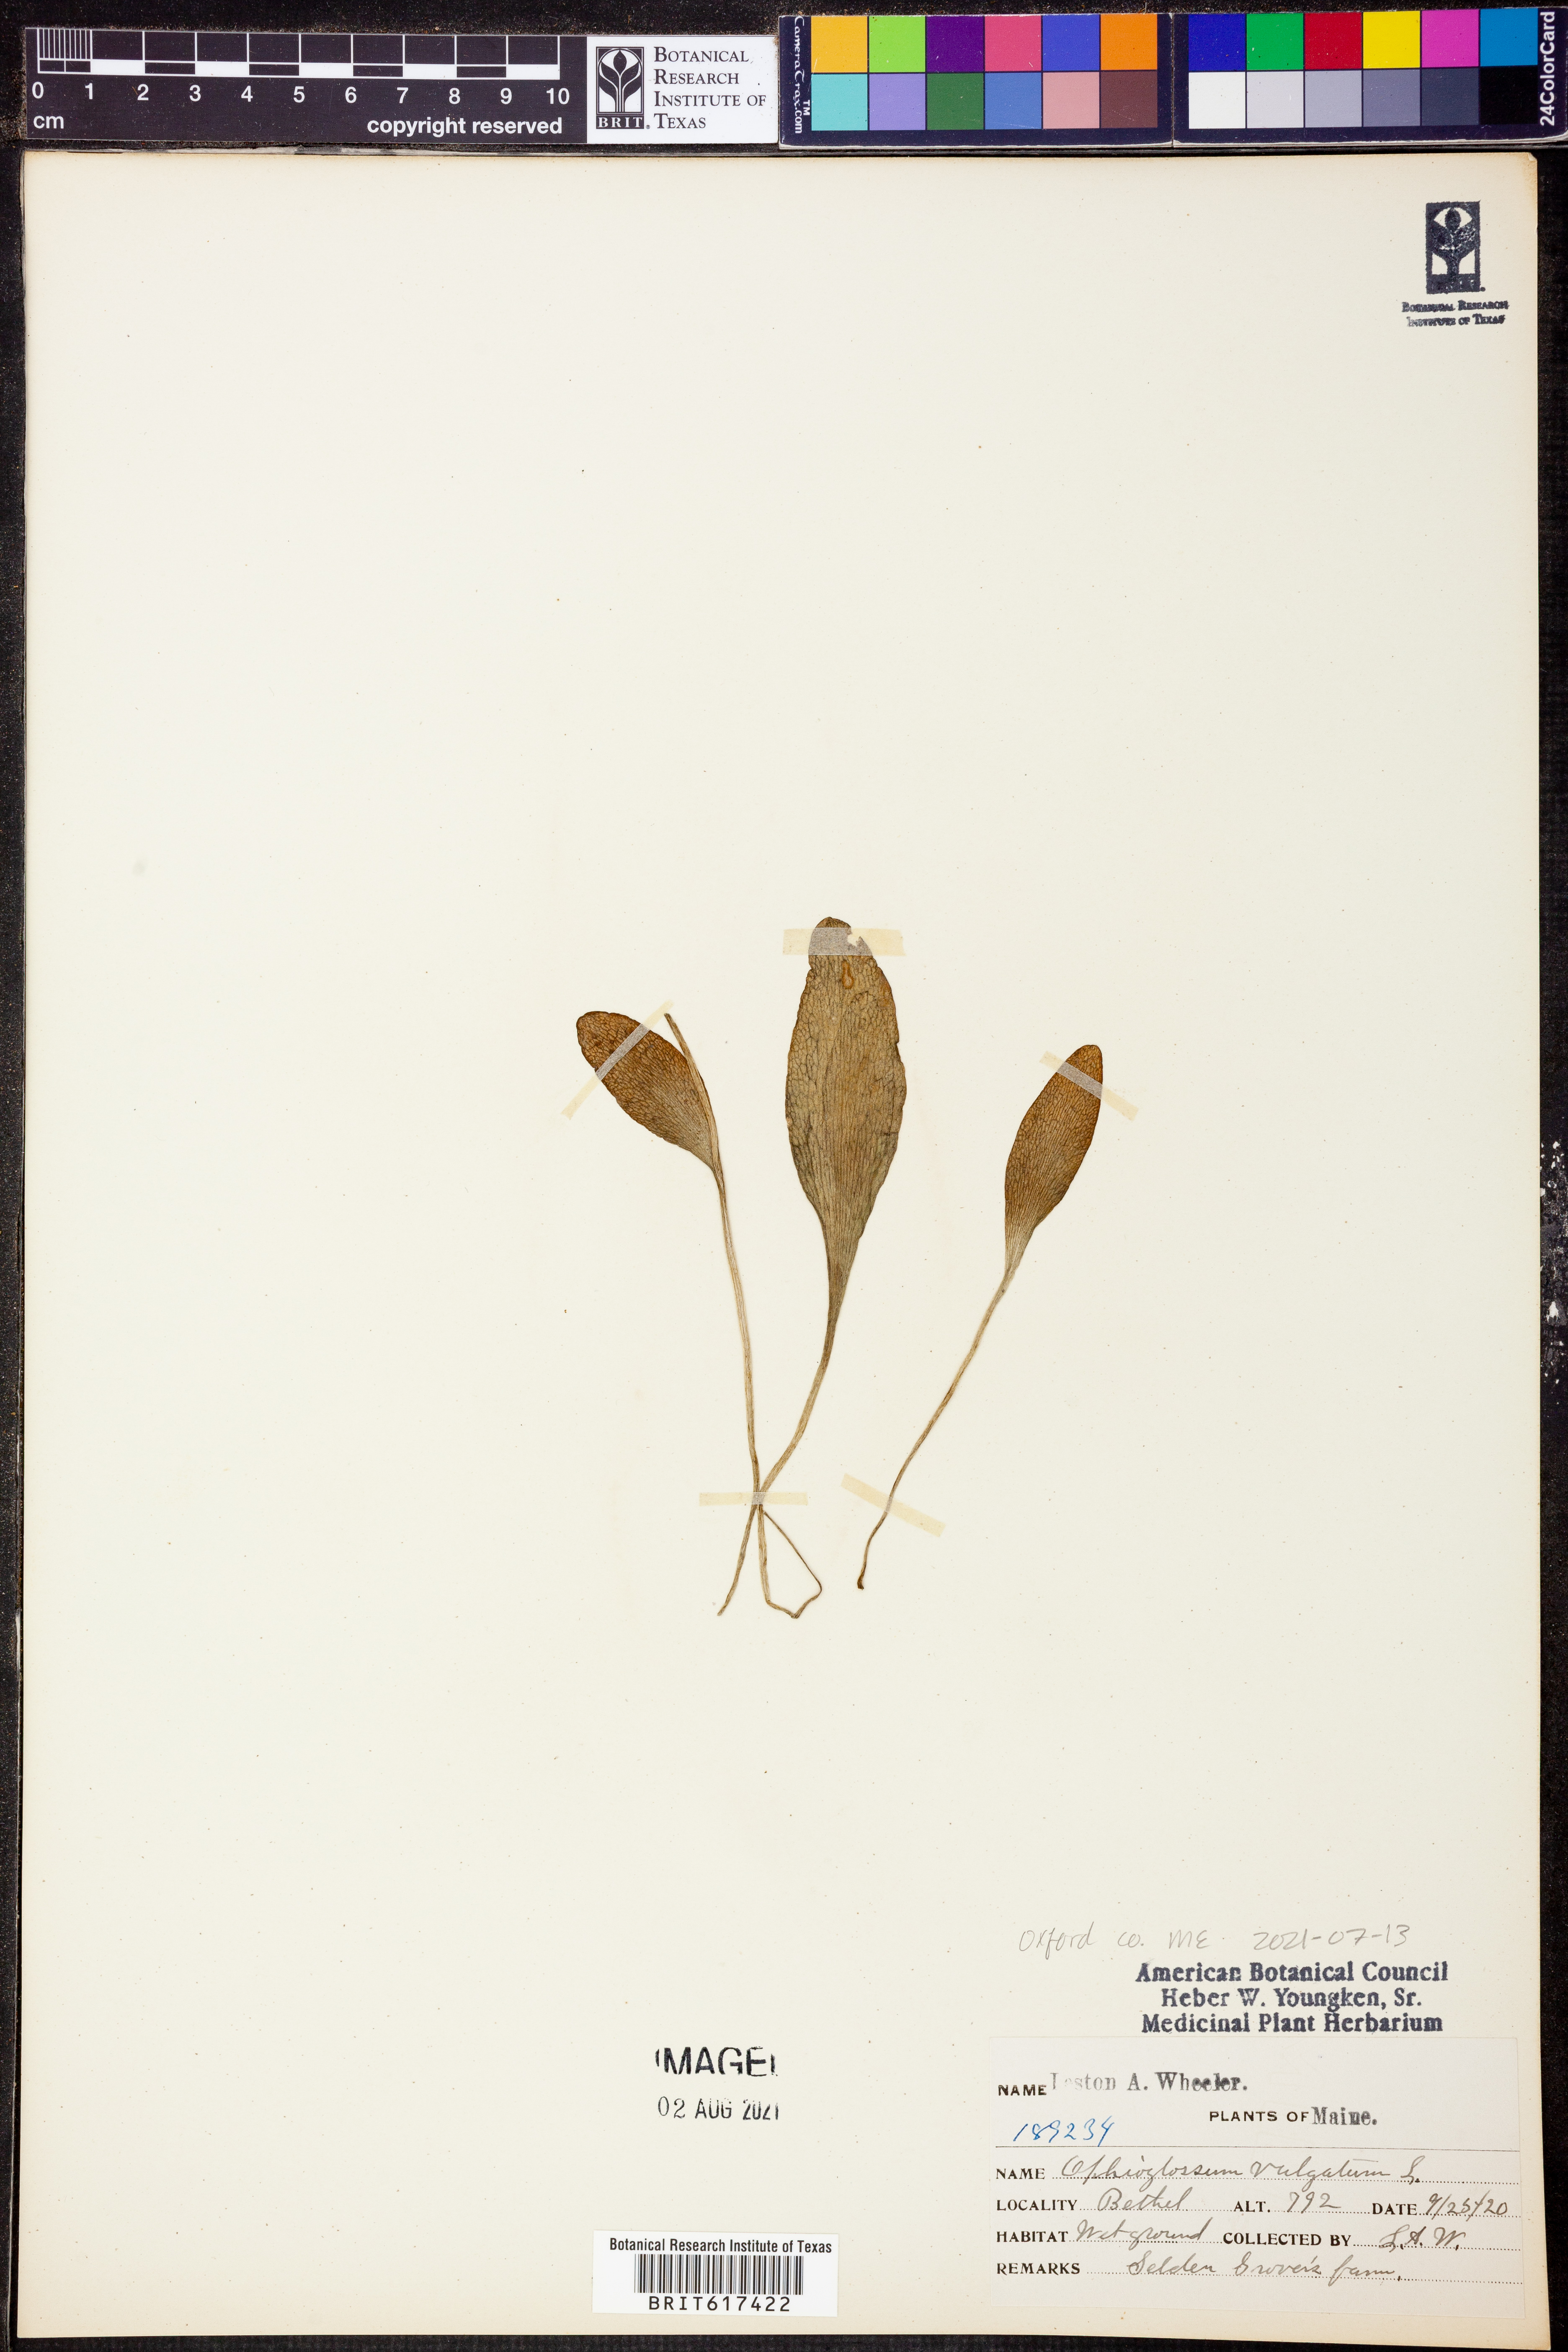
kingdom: Plantae
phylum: Tracheophyta
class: Polypodiopsida
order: Ophioglossales
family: Ophioglossaceae
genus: Ophioglossum
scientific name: Ophioglossum vulgatum
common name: Adder's-tongue
